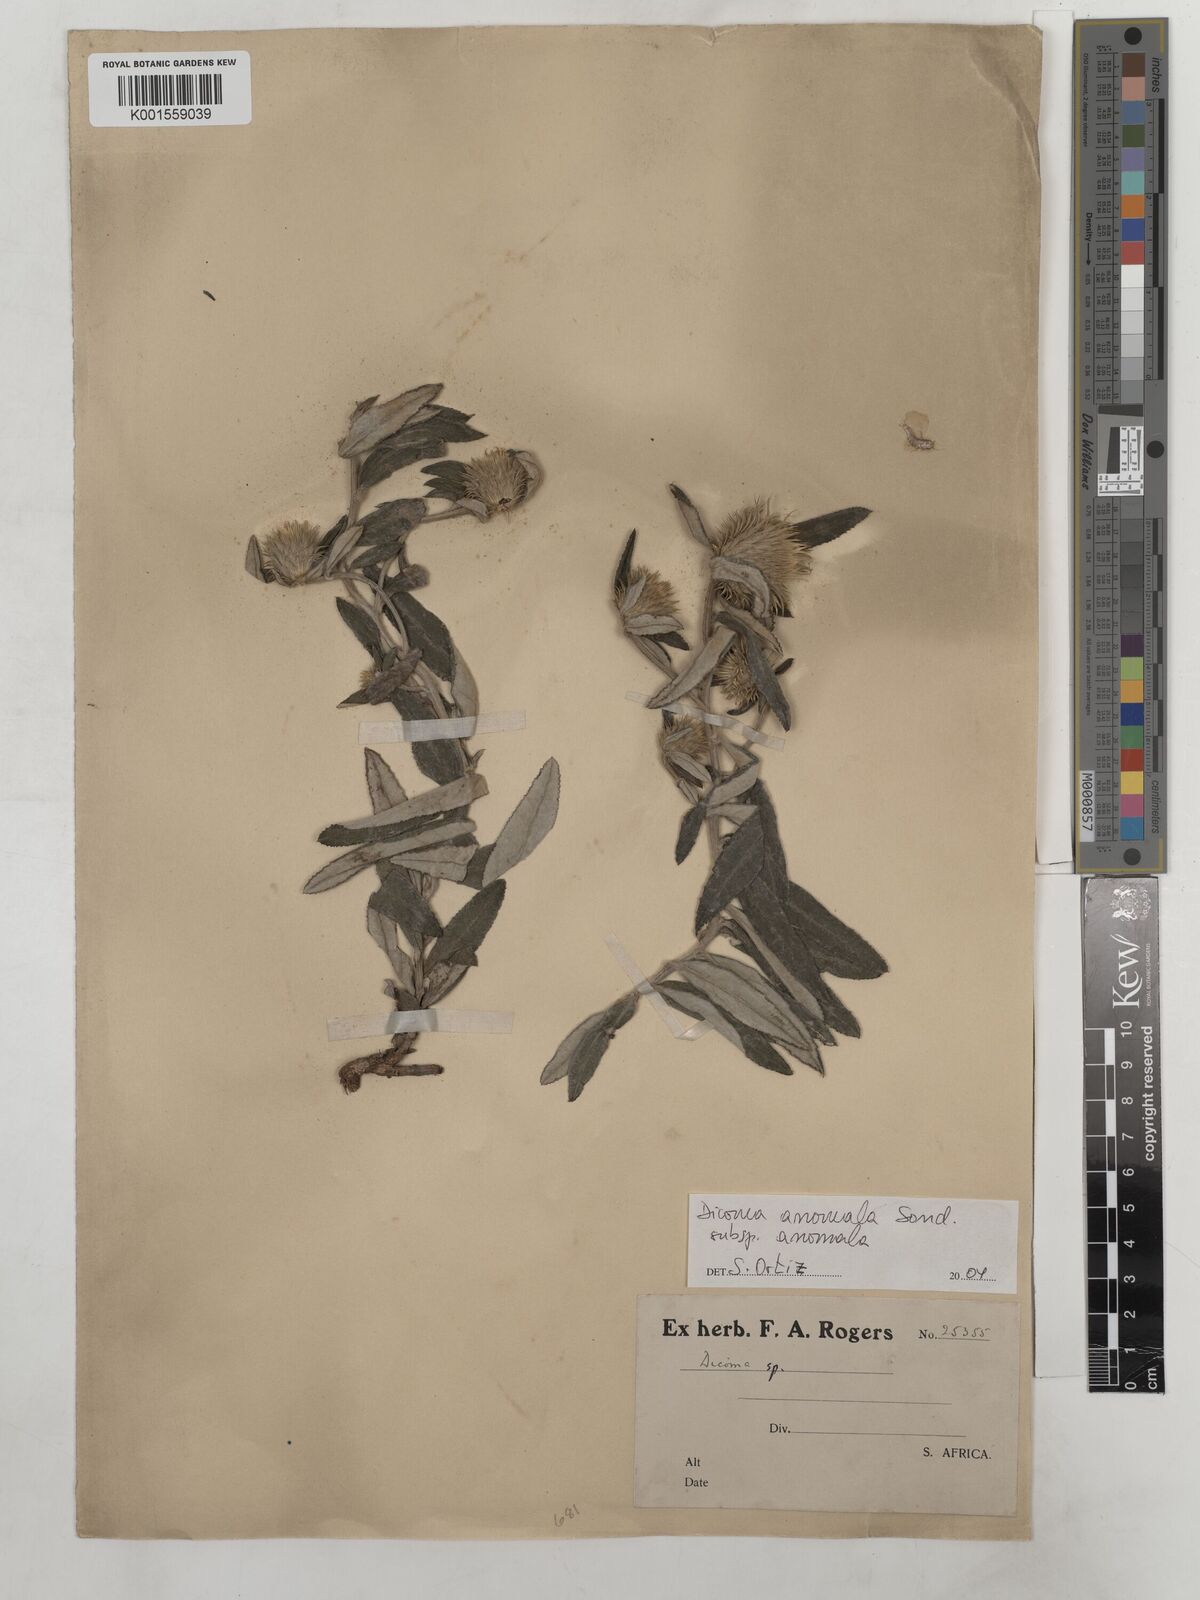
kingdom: Plantae
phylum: Tracheophyta
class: Magnoliopsida
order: Asterales
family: Asteraceae
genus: Dicoma
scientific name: Dicoma anomala
